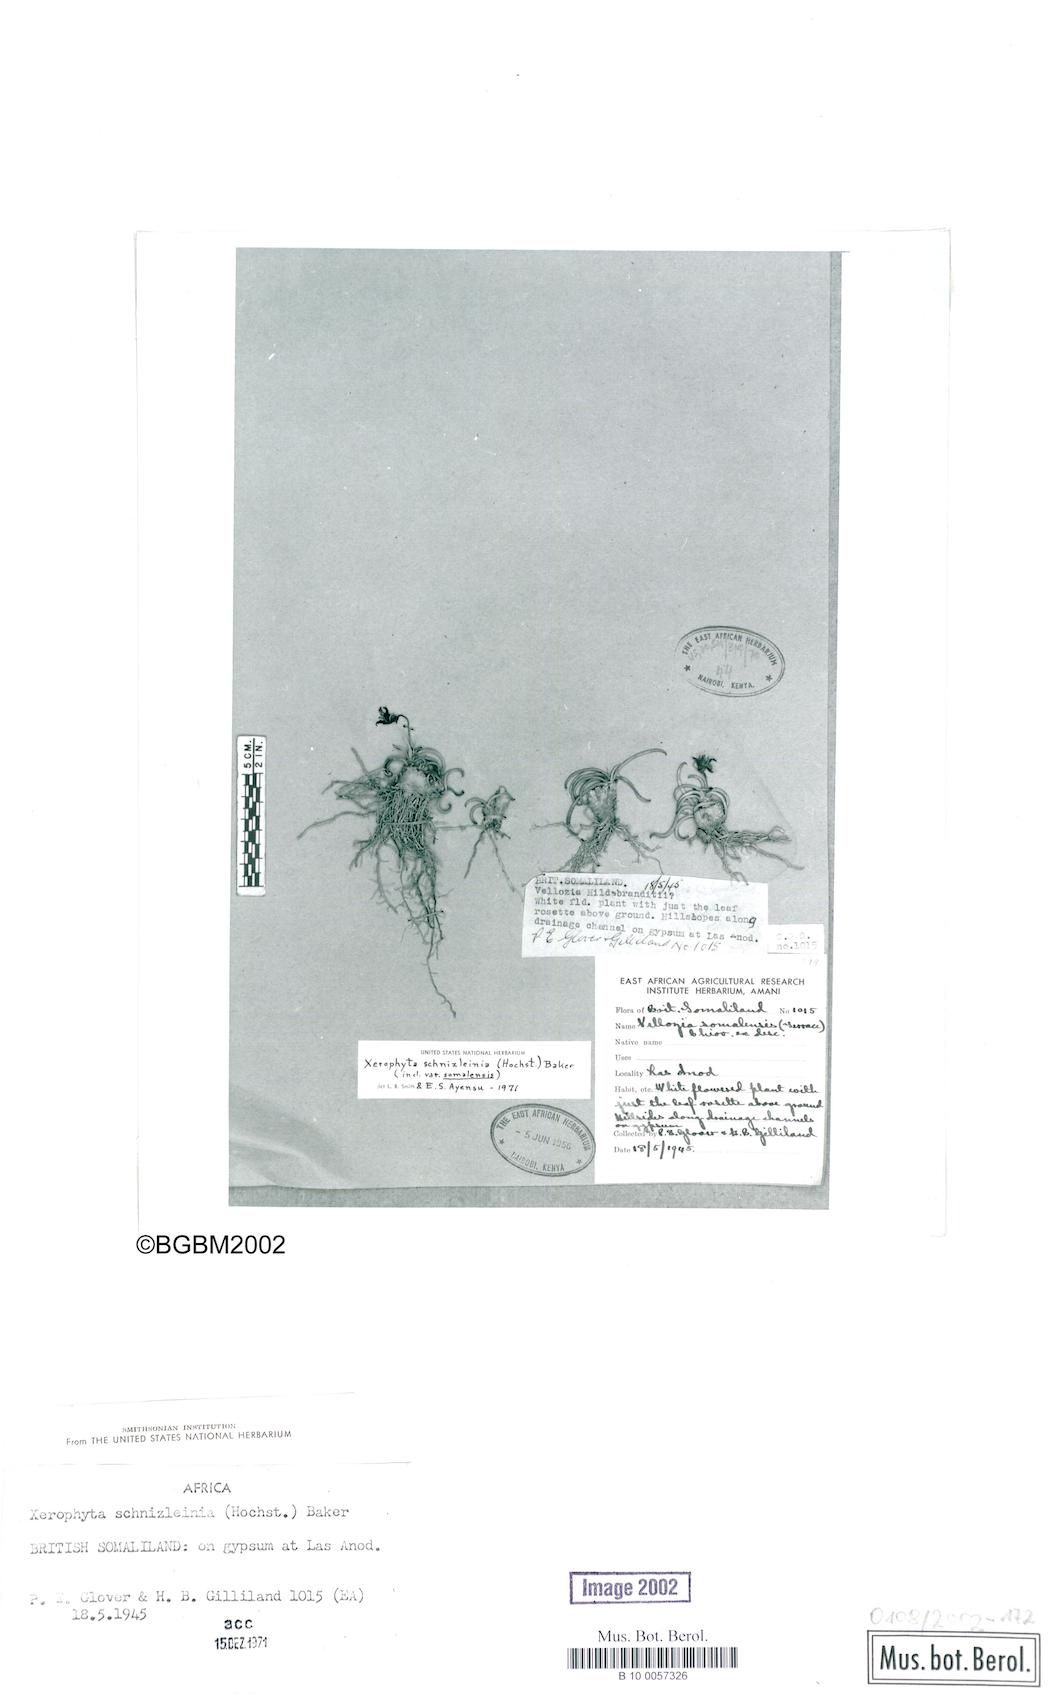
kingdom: Plantae
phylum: Tracheophyta
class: Liliopsida
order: Pandanales
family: Velloziaceae
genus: Xerophyta
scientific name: Xerophyta schnizleinia
